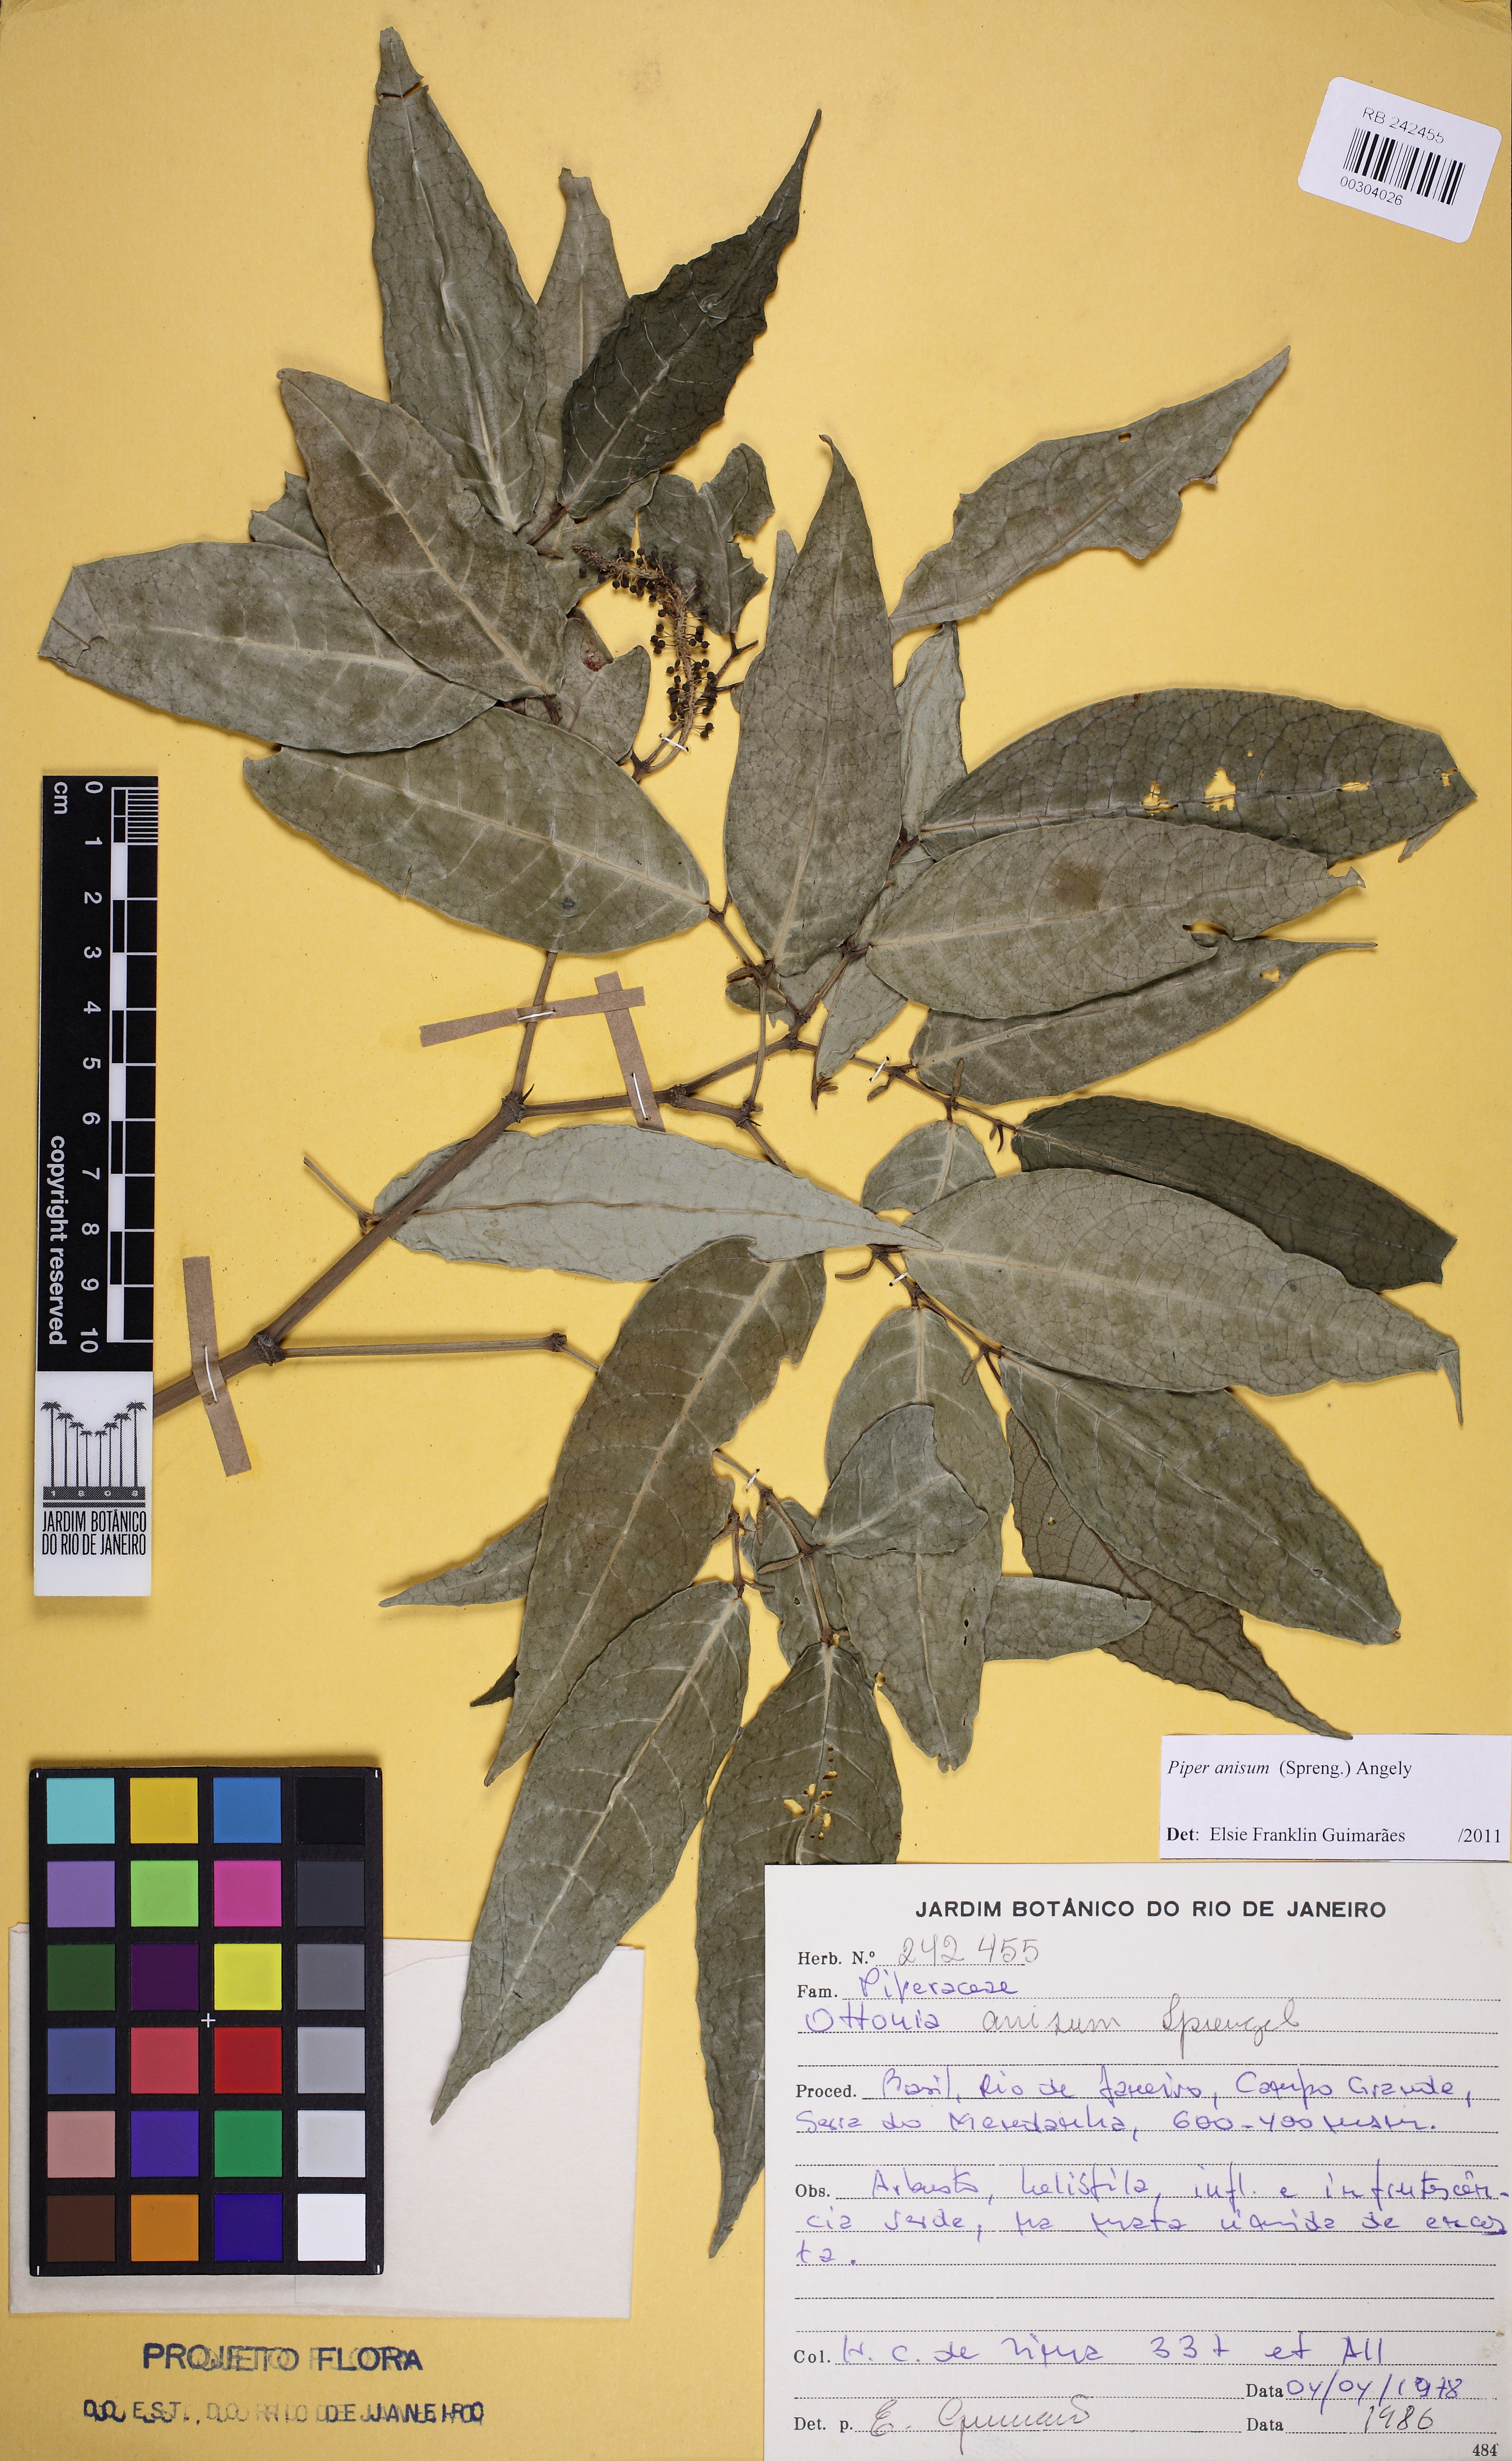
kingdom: Plantae
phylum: Tracheophyta
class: Magnoliopsida
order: Piperales
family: Piperaceae
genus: Piper
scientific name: Piper anisum
